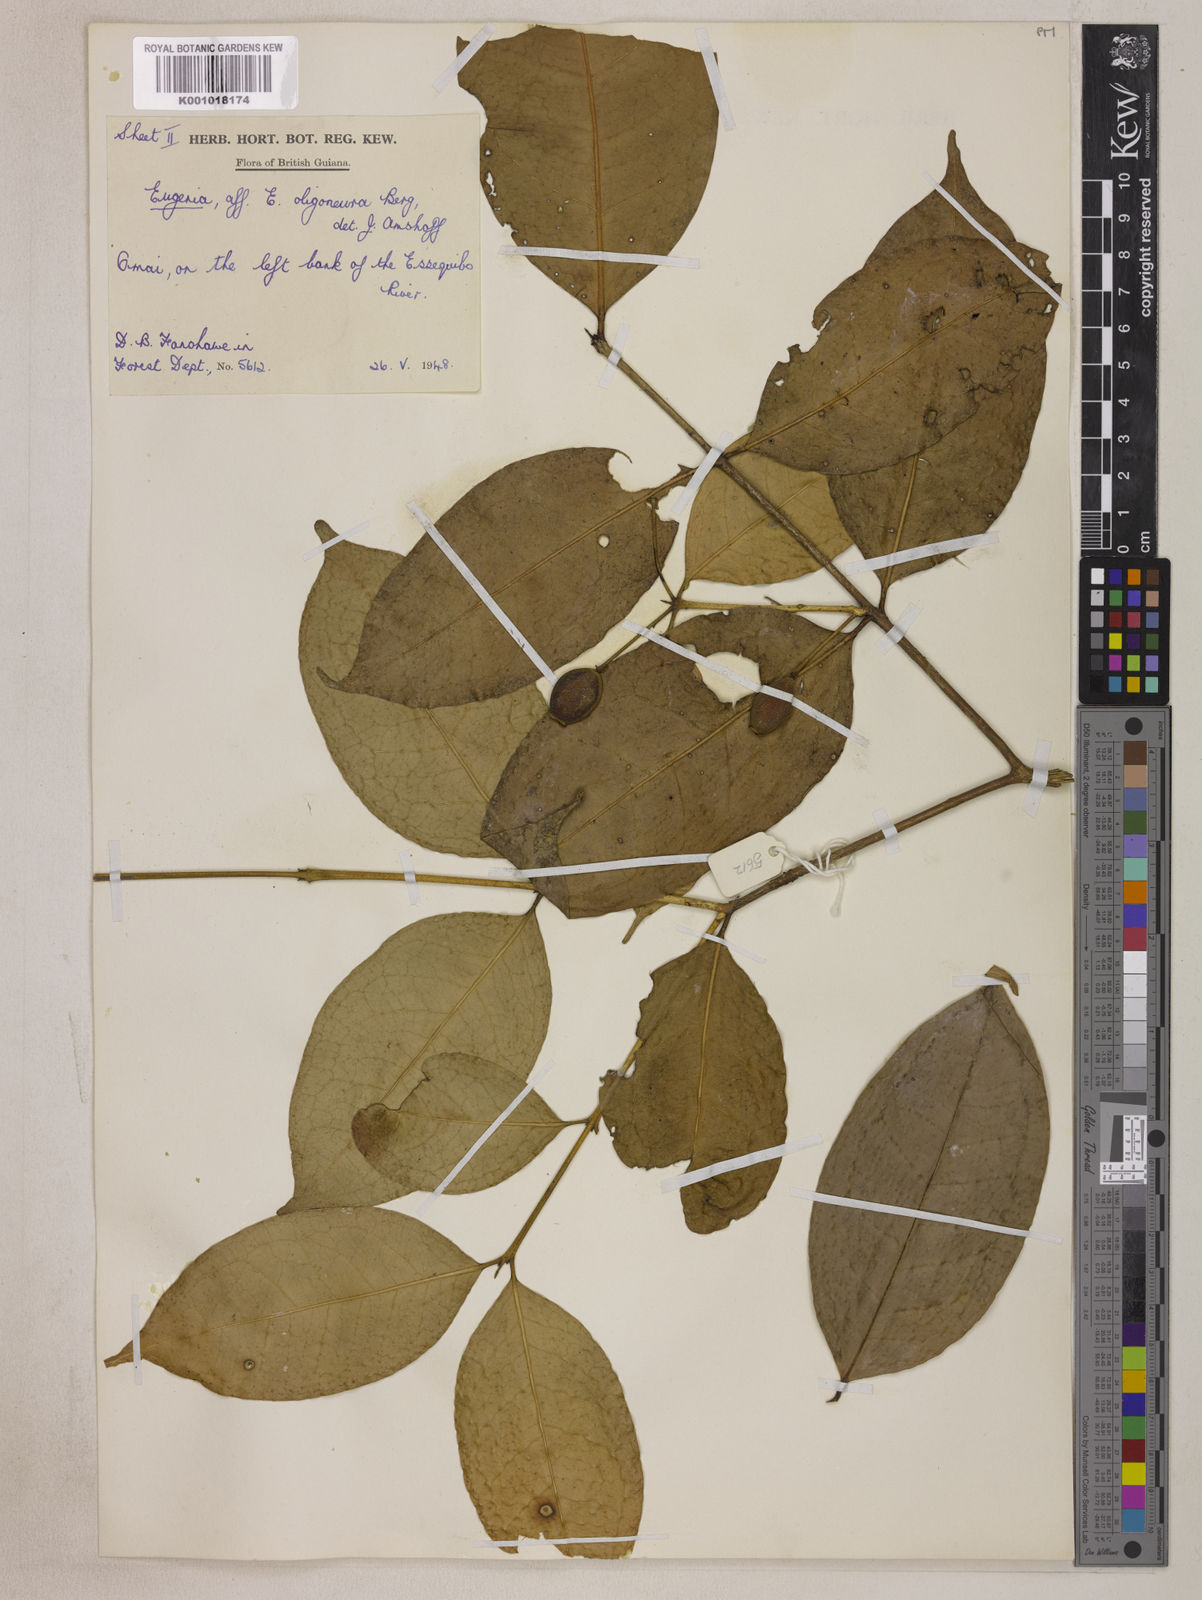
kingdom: Plantae
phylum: Tracheophyta
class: Magnoliopsida
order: Myrtales
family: Myrtaceae
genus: Eugenia
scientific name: Eugenia florida
